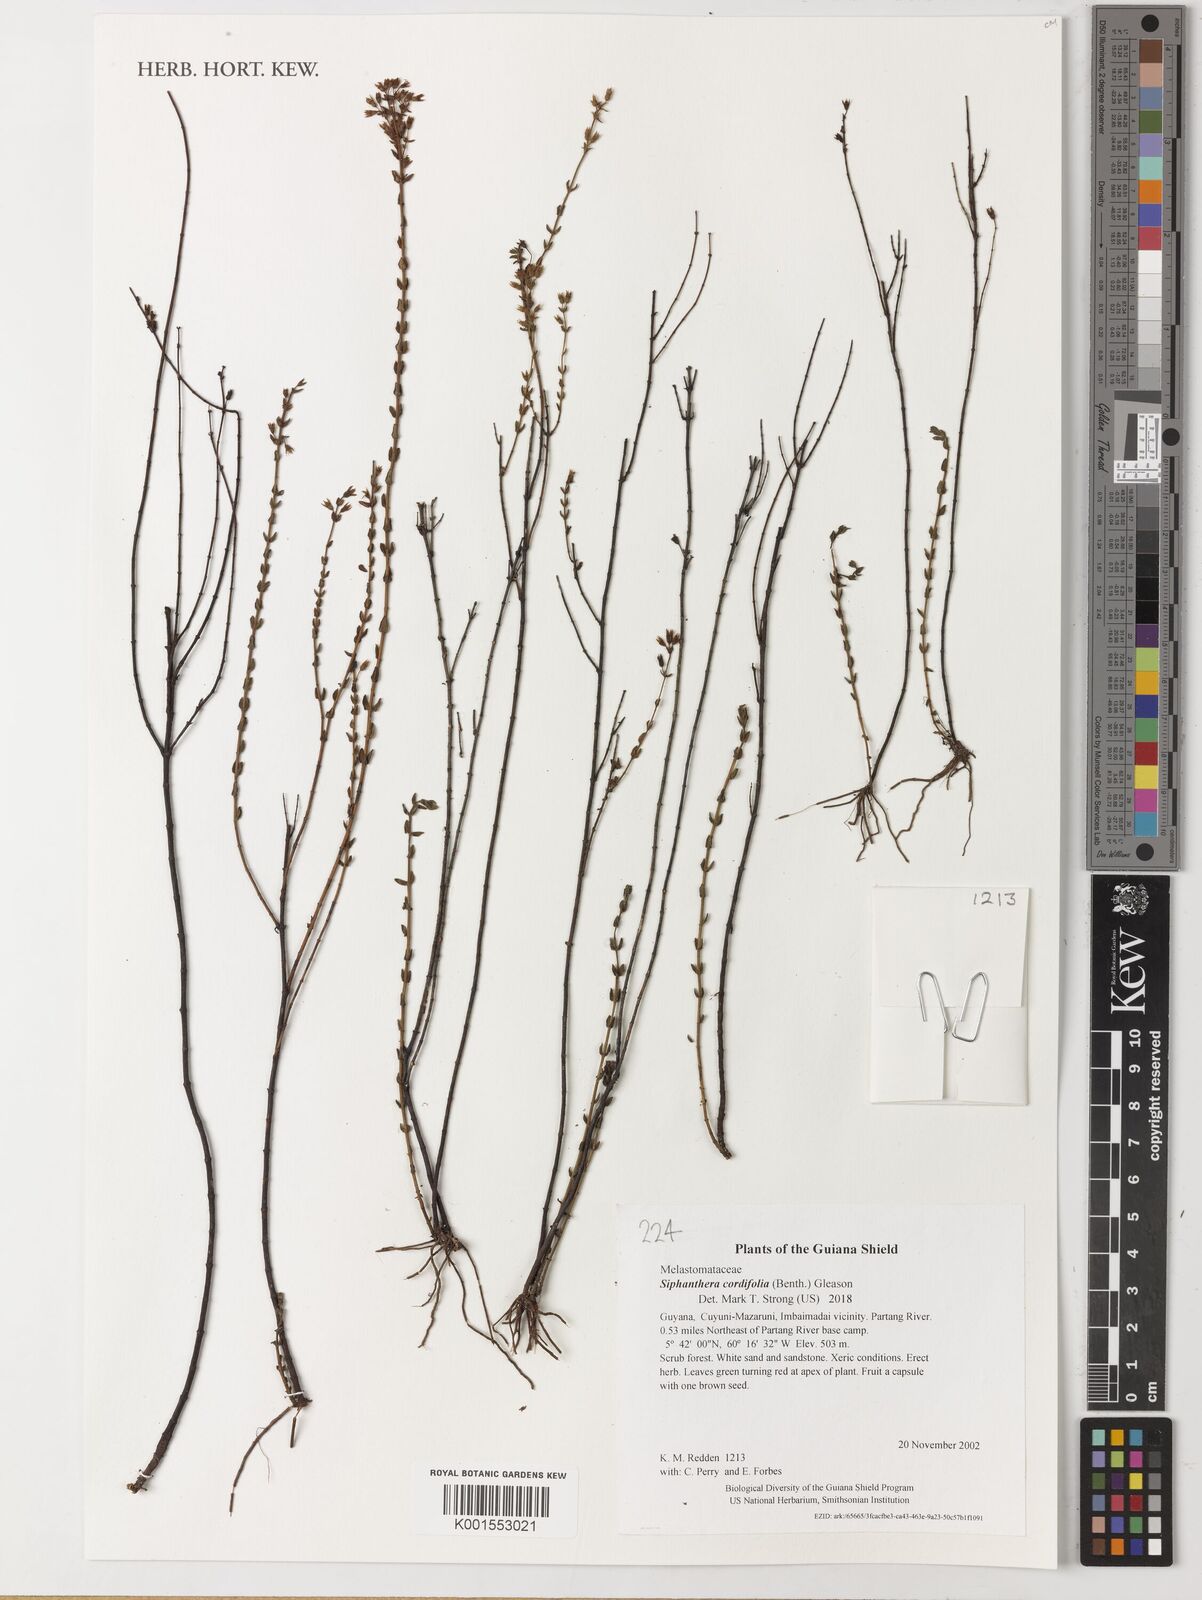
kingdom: Plantae
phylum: Tracheophyta
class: Magnoliopsida
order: Myrtales
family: Melastomataceae
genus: Siphanthera
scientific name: Siphanthera cordifolia
